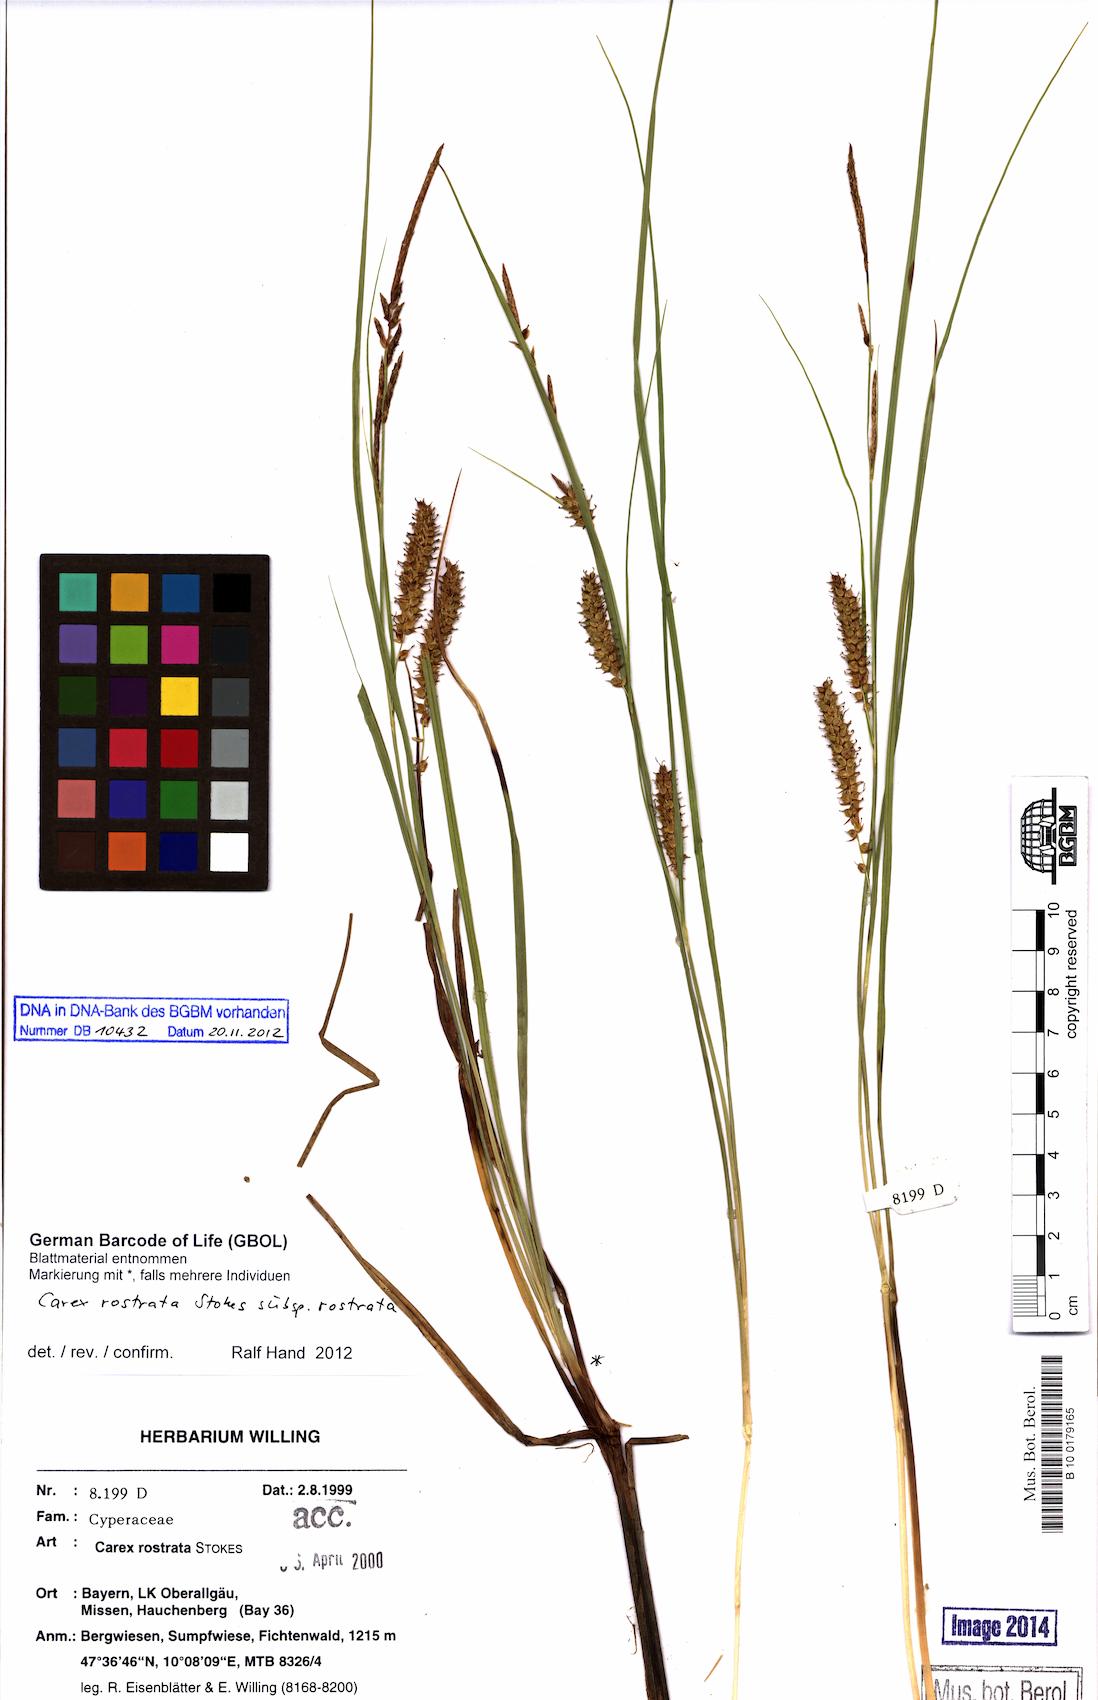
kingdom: Plantae
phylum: Tracheophyta
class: Liliopsida
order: Poales
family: Cyperaceae
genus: Carex
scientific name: Carex rostrata
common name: Bottle sedge
